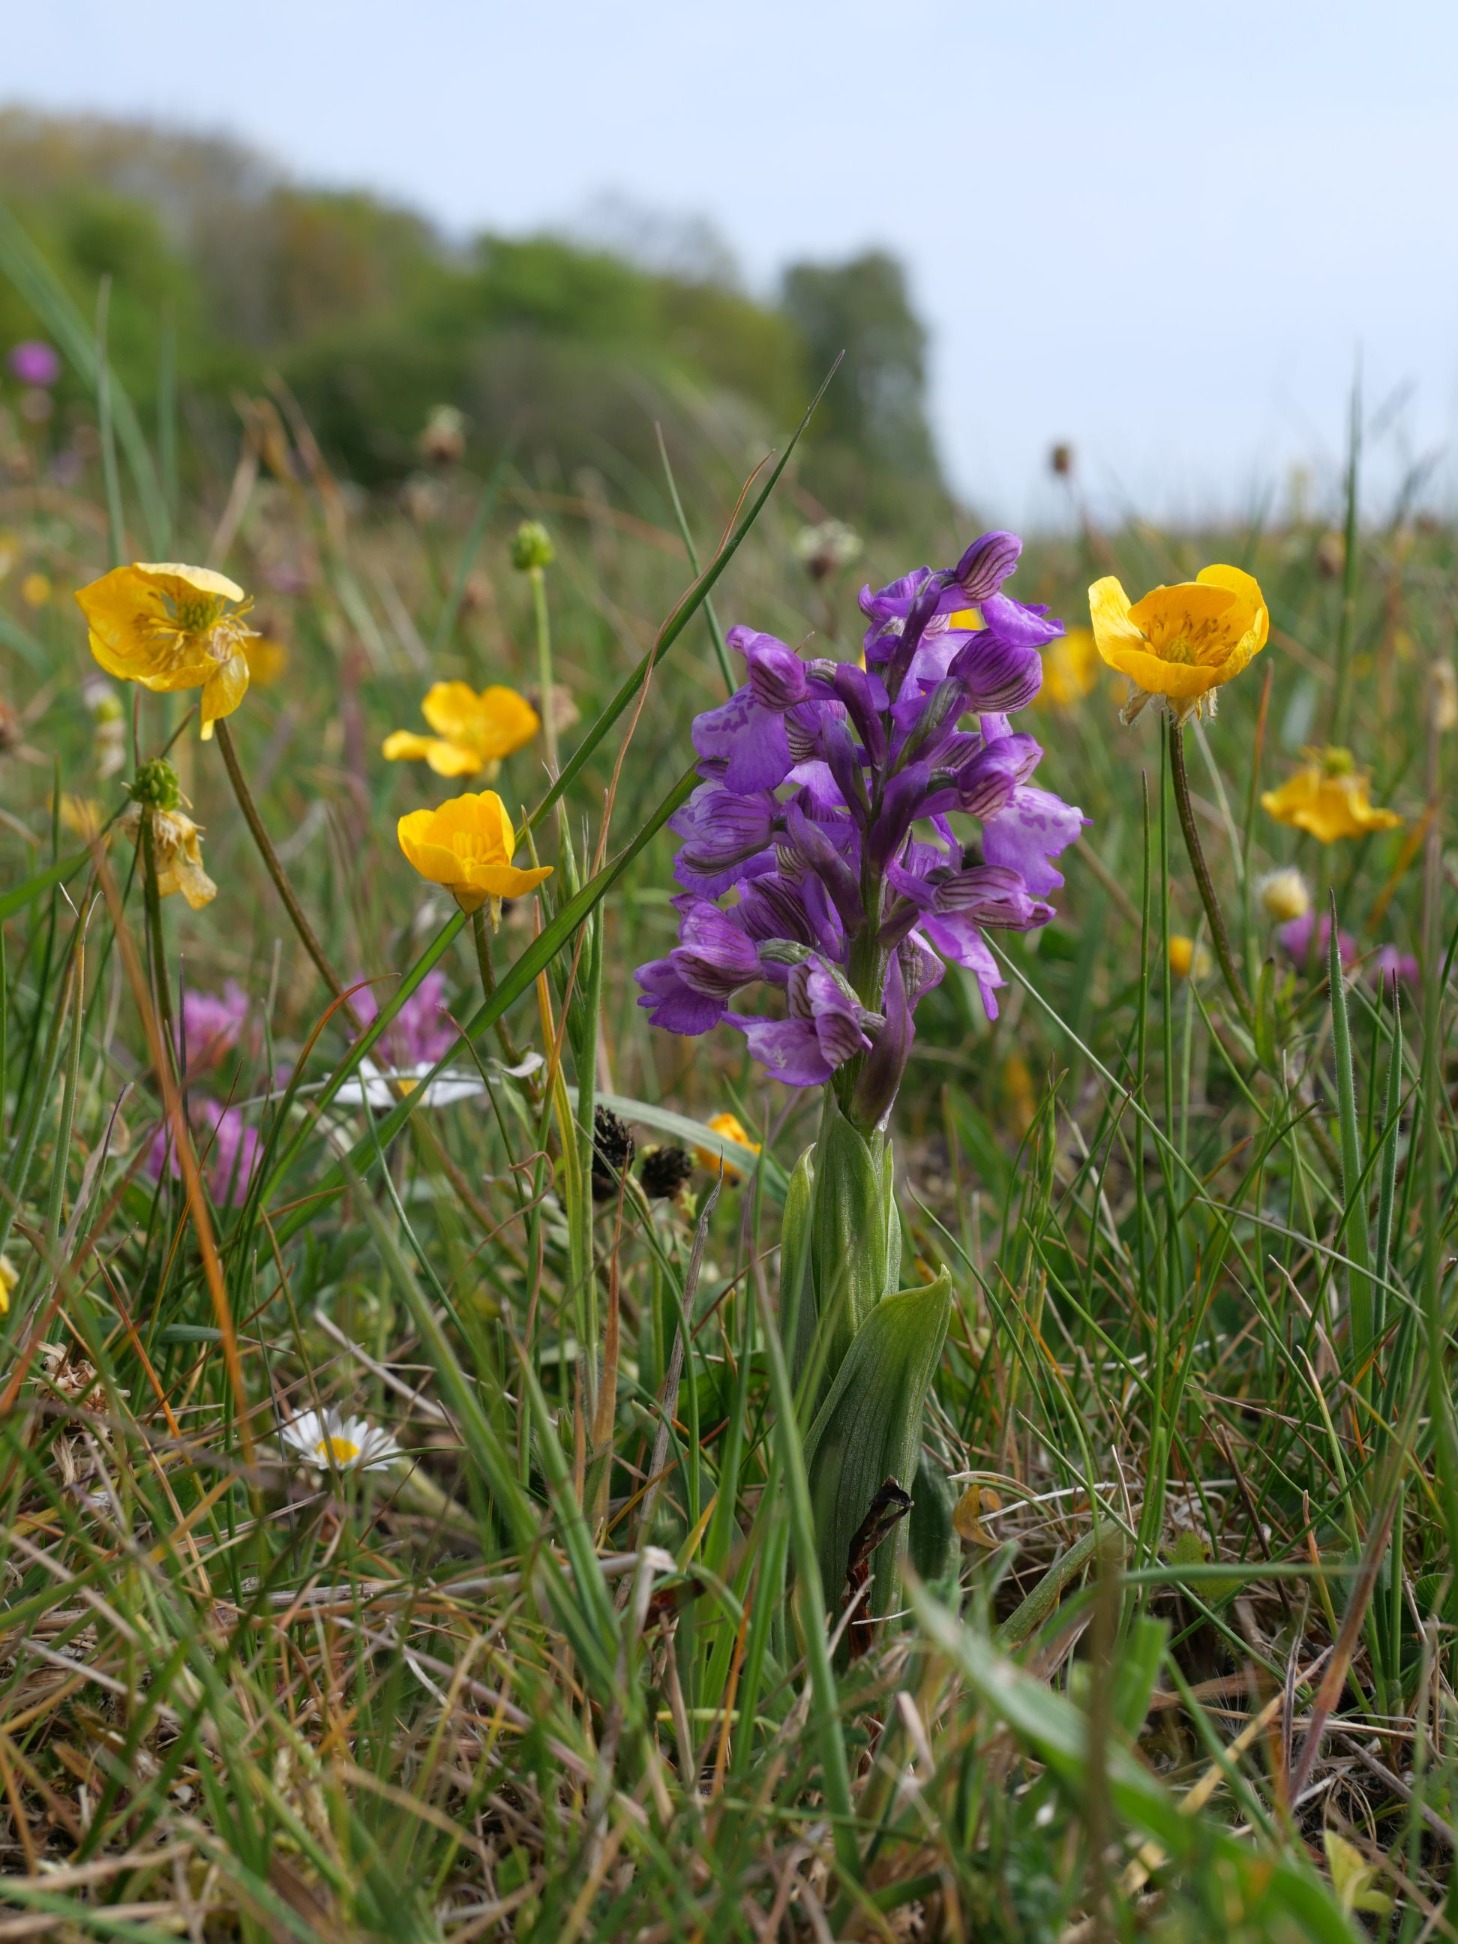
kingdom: Plantae
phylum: Tracheophyta
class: Liliopsida
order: Asparagales
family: Orchidaceae
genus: Anacamptis
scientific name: Anacamptis morio
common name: Salepgøgeurt
